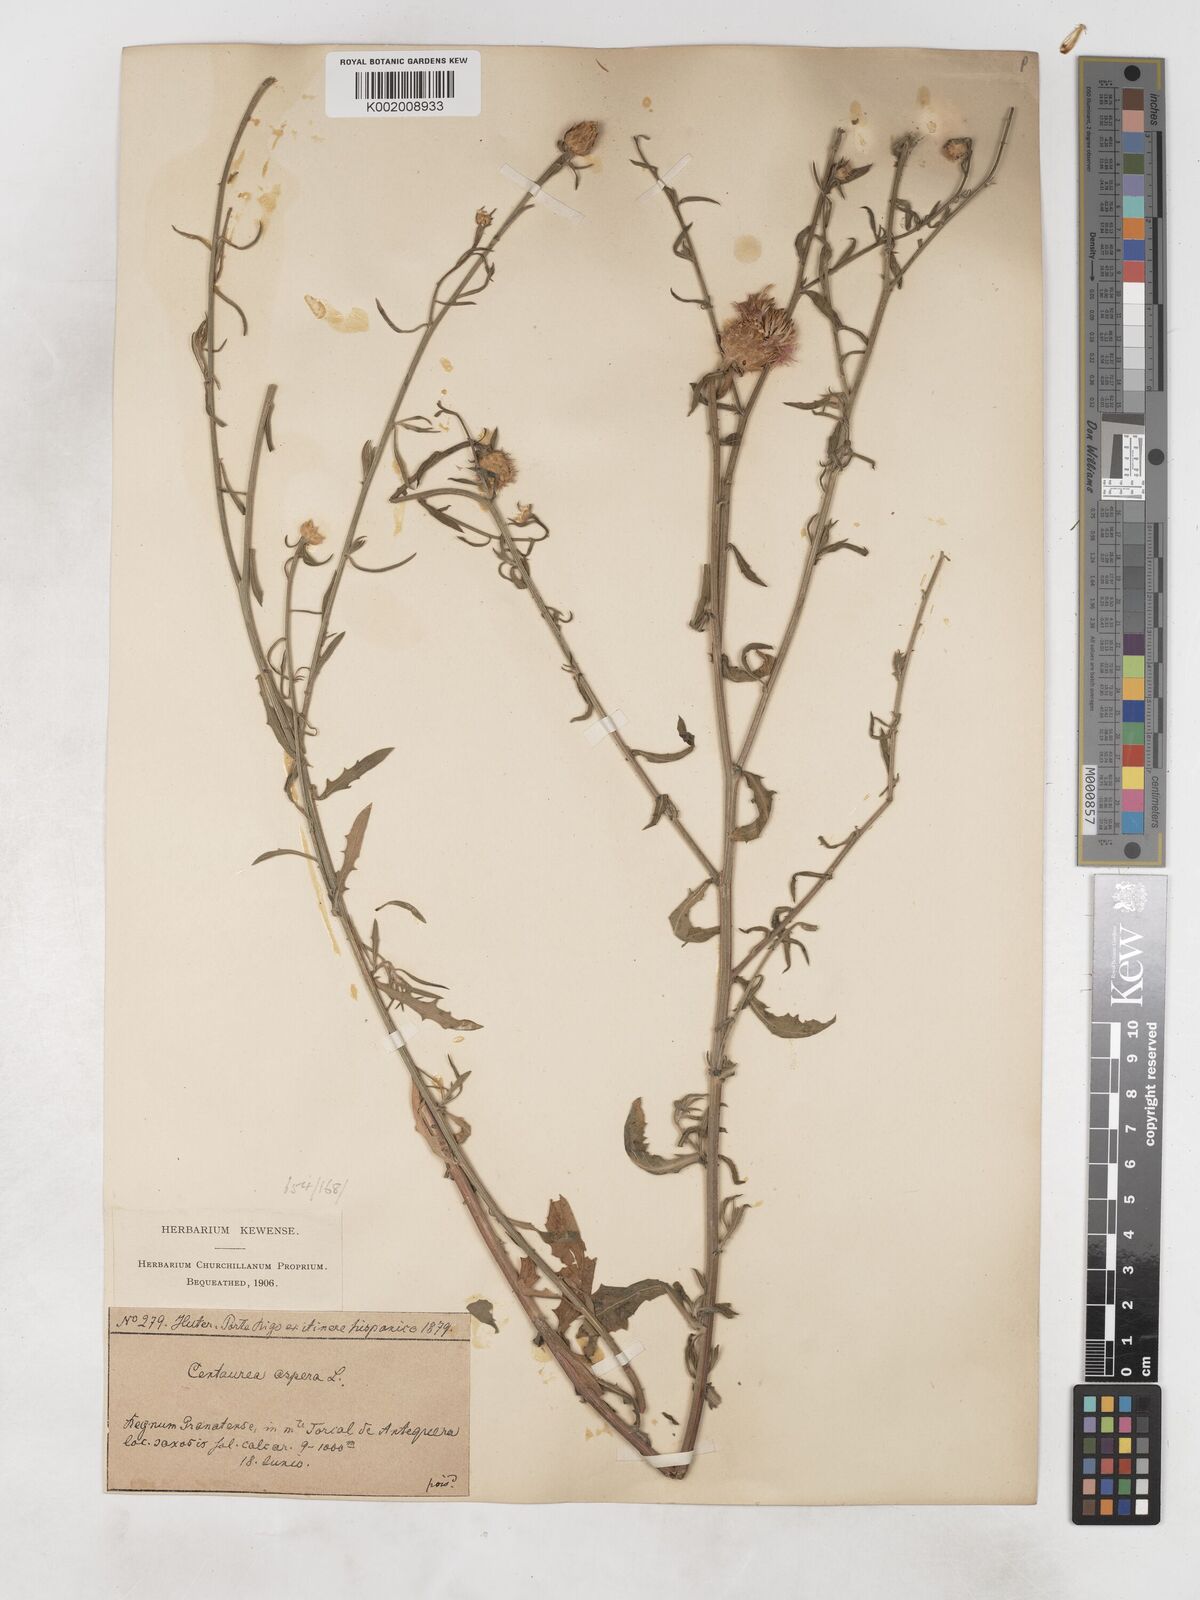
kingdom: Plantae
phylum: Tracheophyta
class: Magnoliopsida
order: Asterales
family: Asteraceae
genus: Centaurea
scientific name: Centaurea aspera
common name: Rough star-thistle
